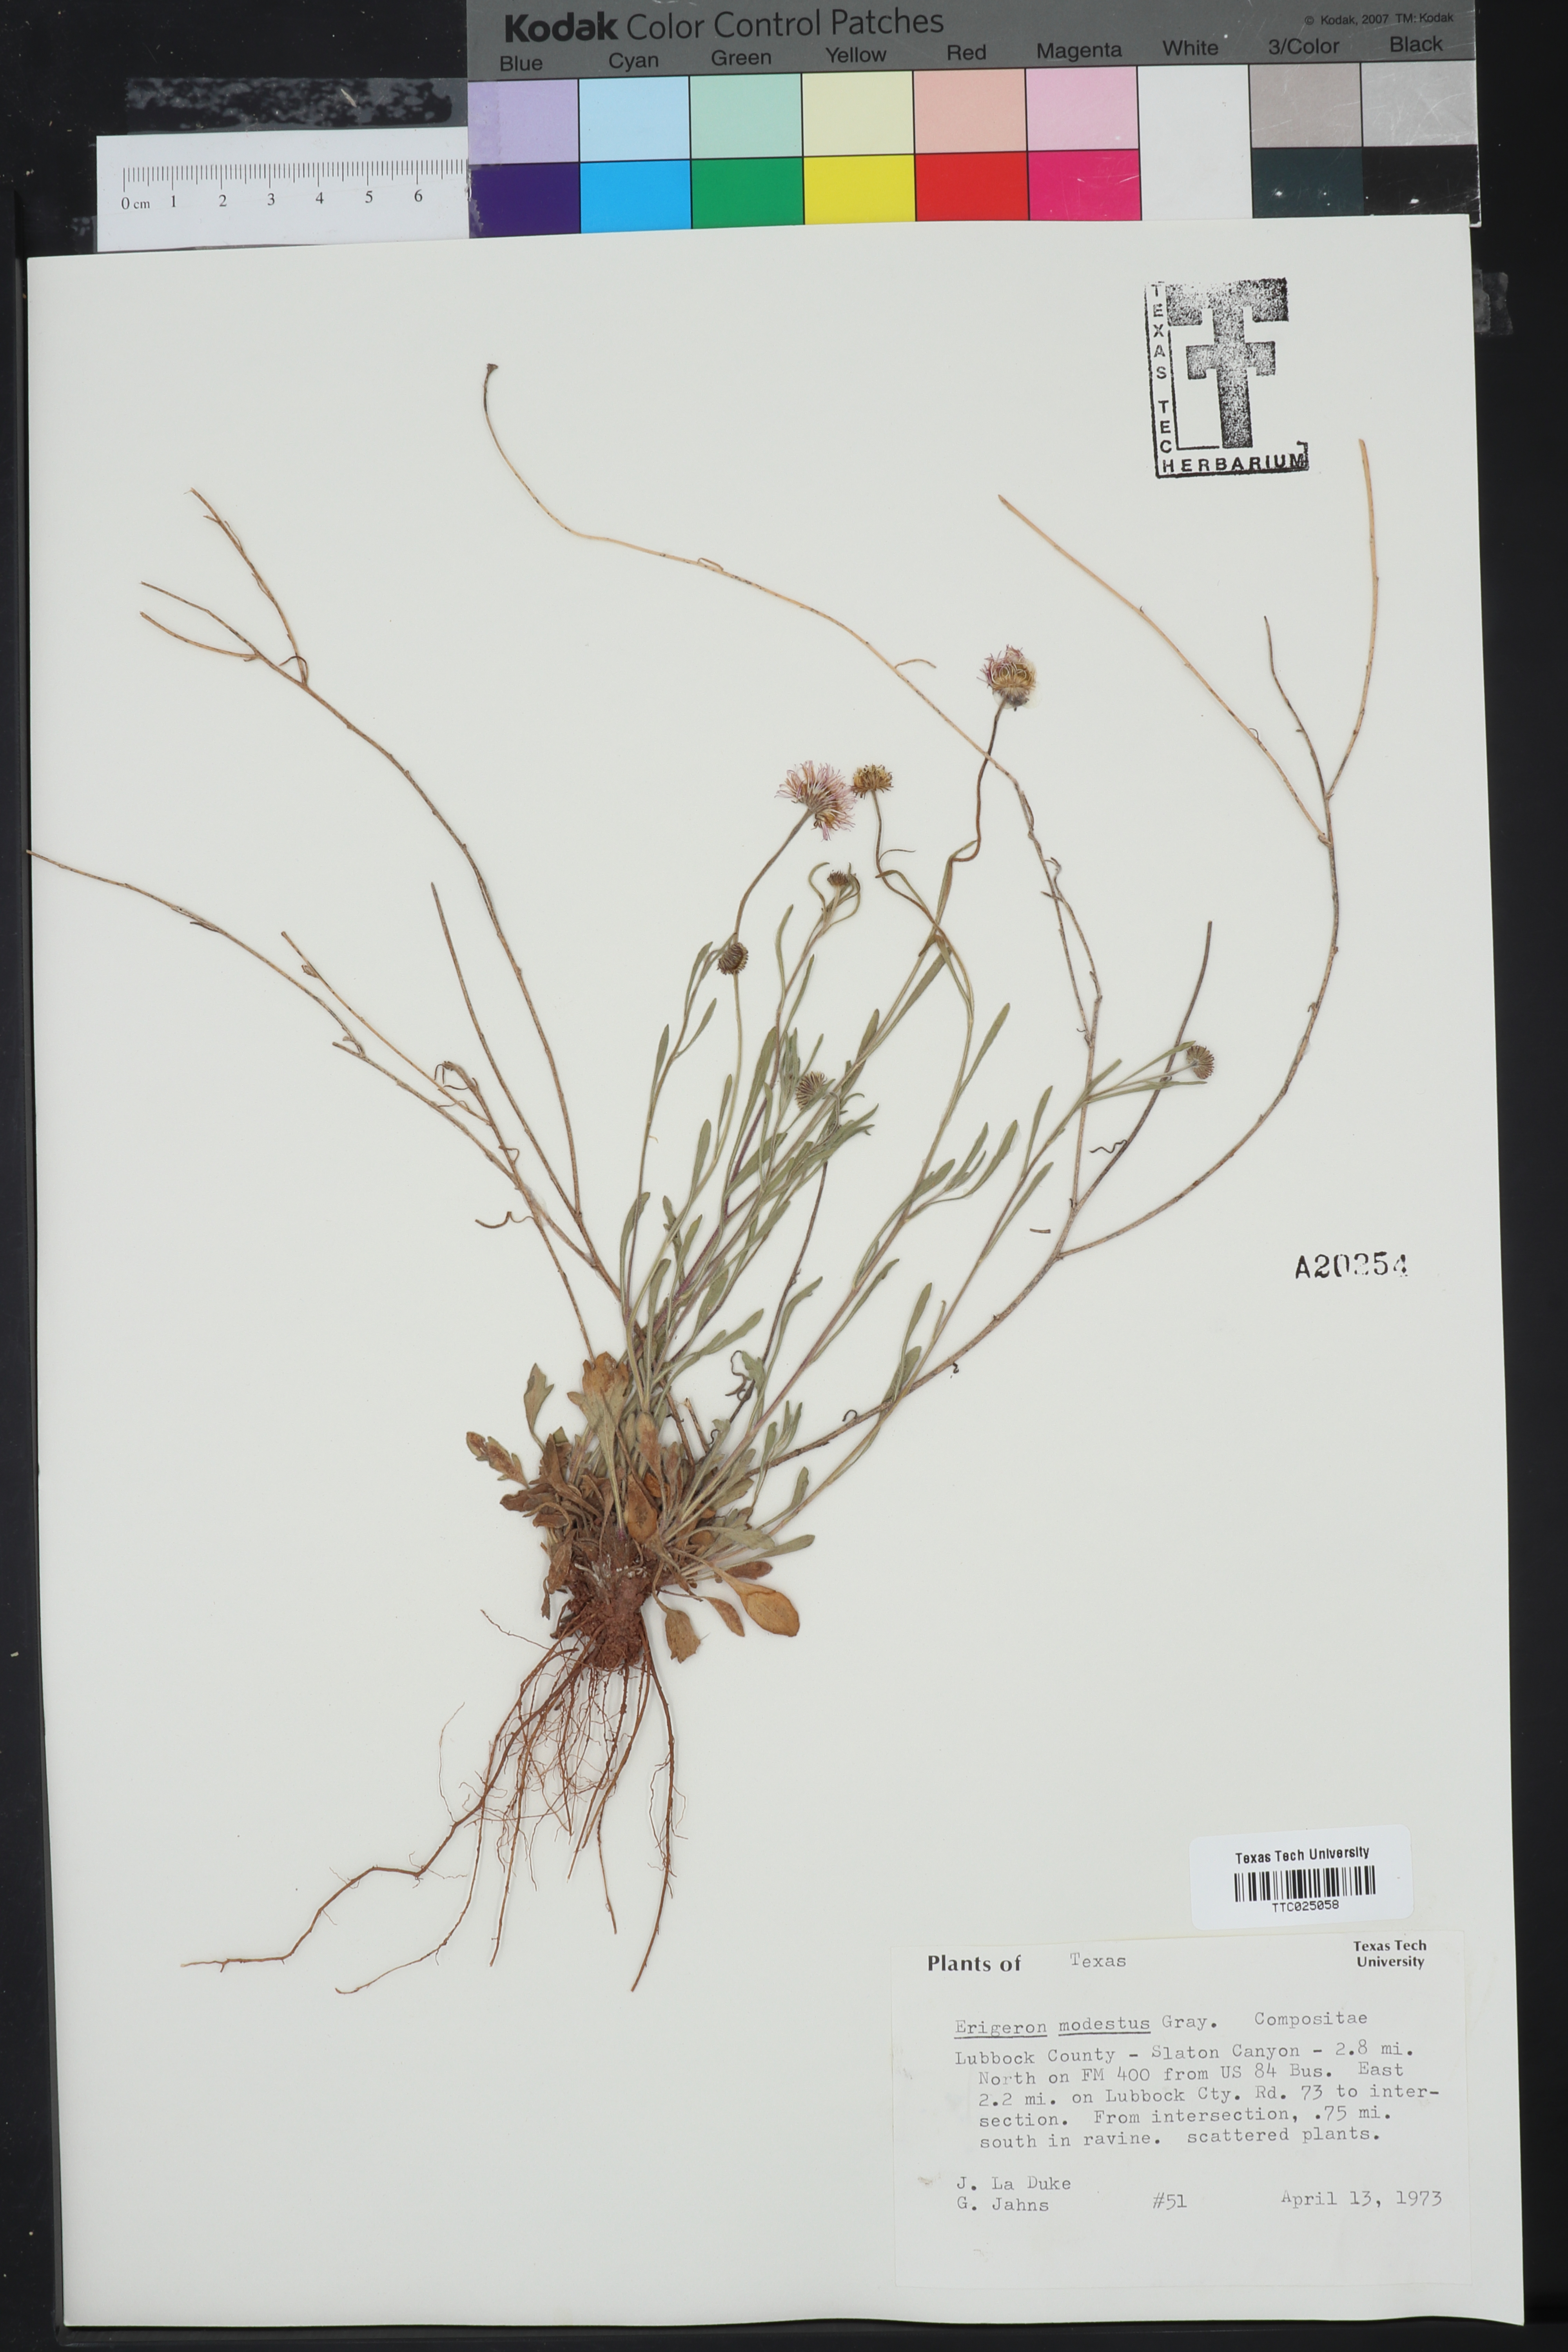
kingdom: Plantae
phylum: Tracheophyta
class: Magnoliopsida
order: Asterales
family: Asteraceae
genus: Erigeron
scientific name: Erigeron modestus
